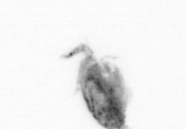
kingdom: Animalia
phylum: Arthropoda
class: Copepoda
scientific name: Copepoda
